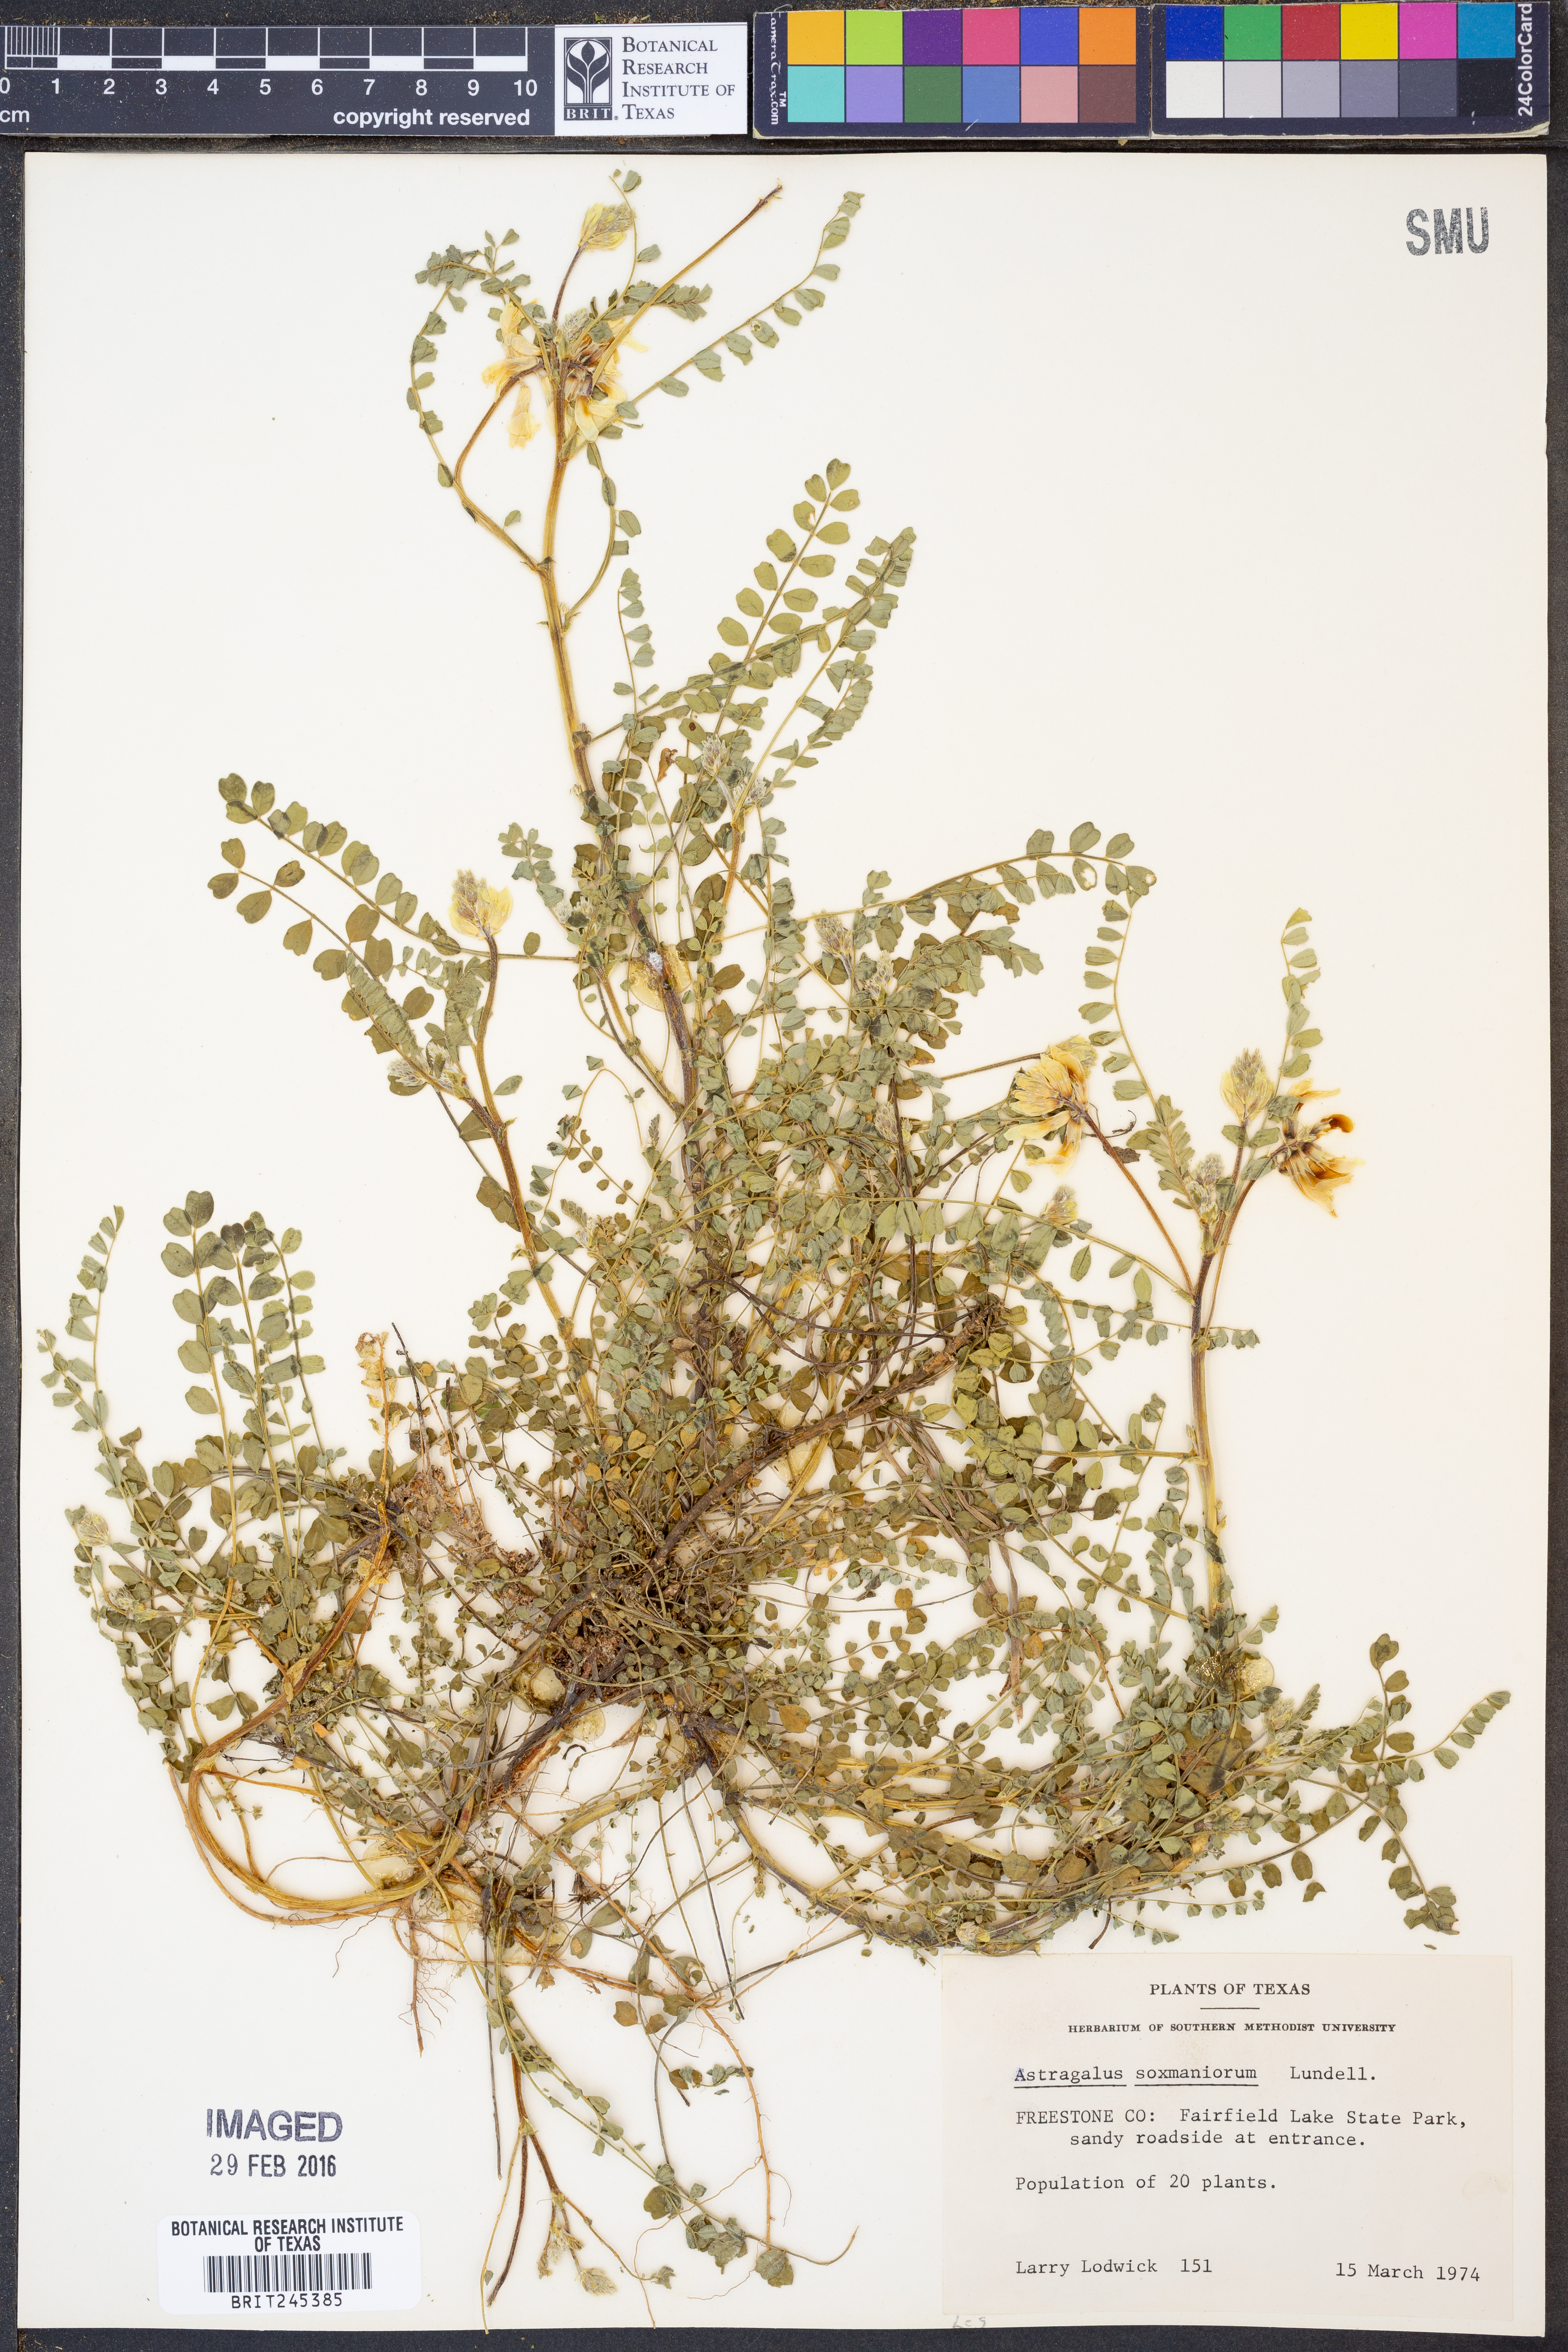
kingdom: Plantae
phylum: Tracheophyta
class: Magnoliopsida
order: Fabales
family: Fabaceae
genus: Astragalus
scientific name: Astragalus soxmaniorum
